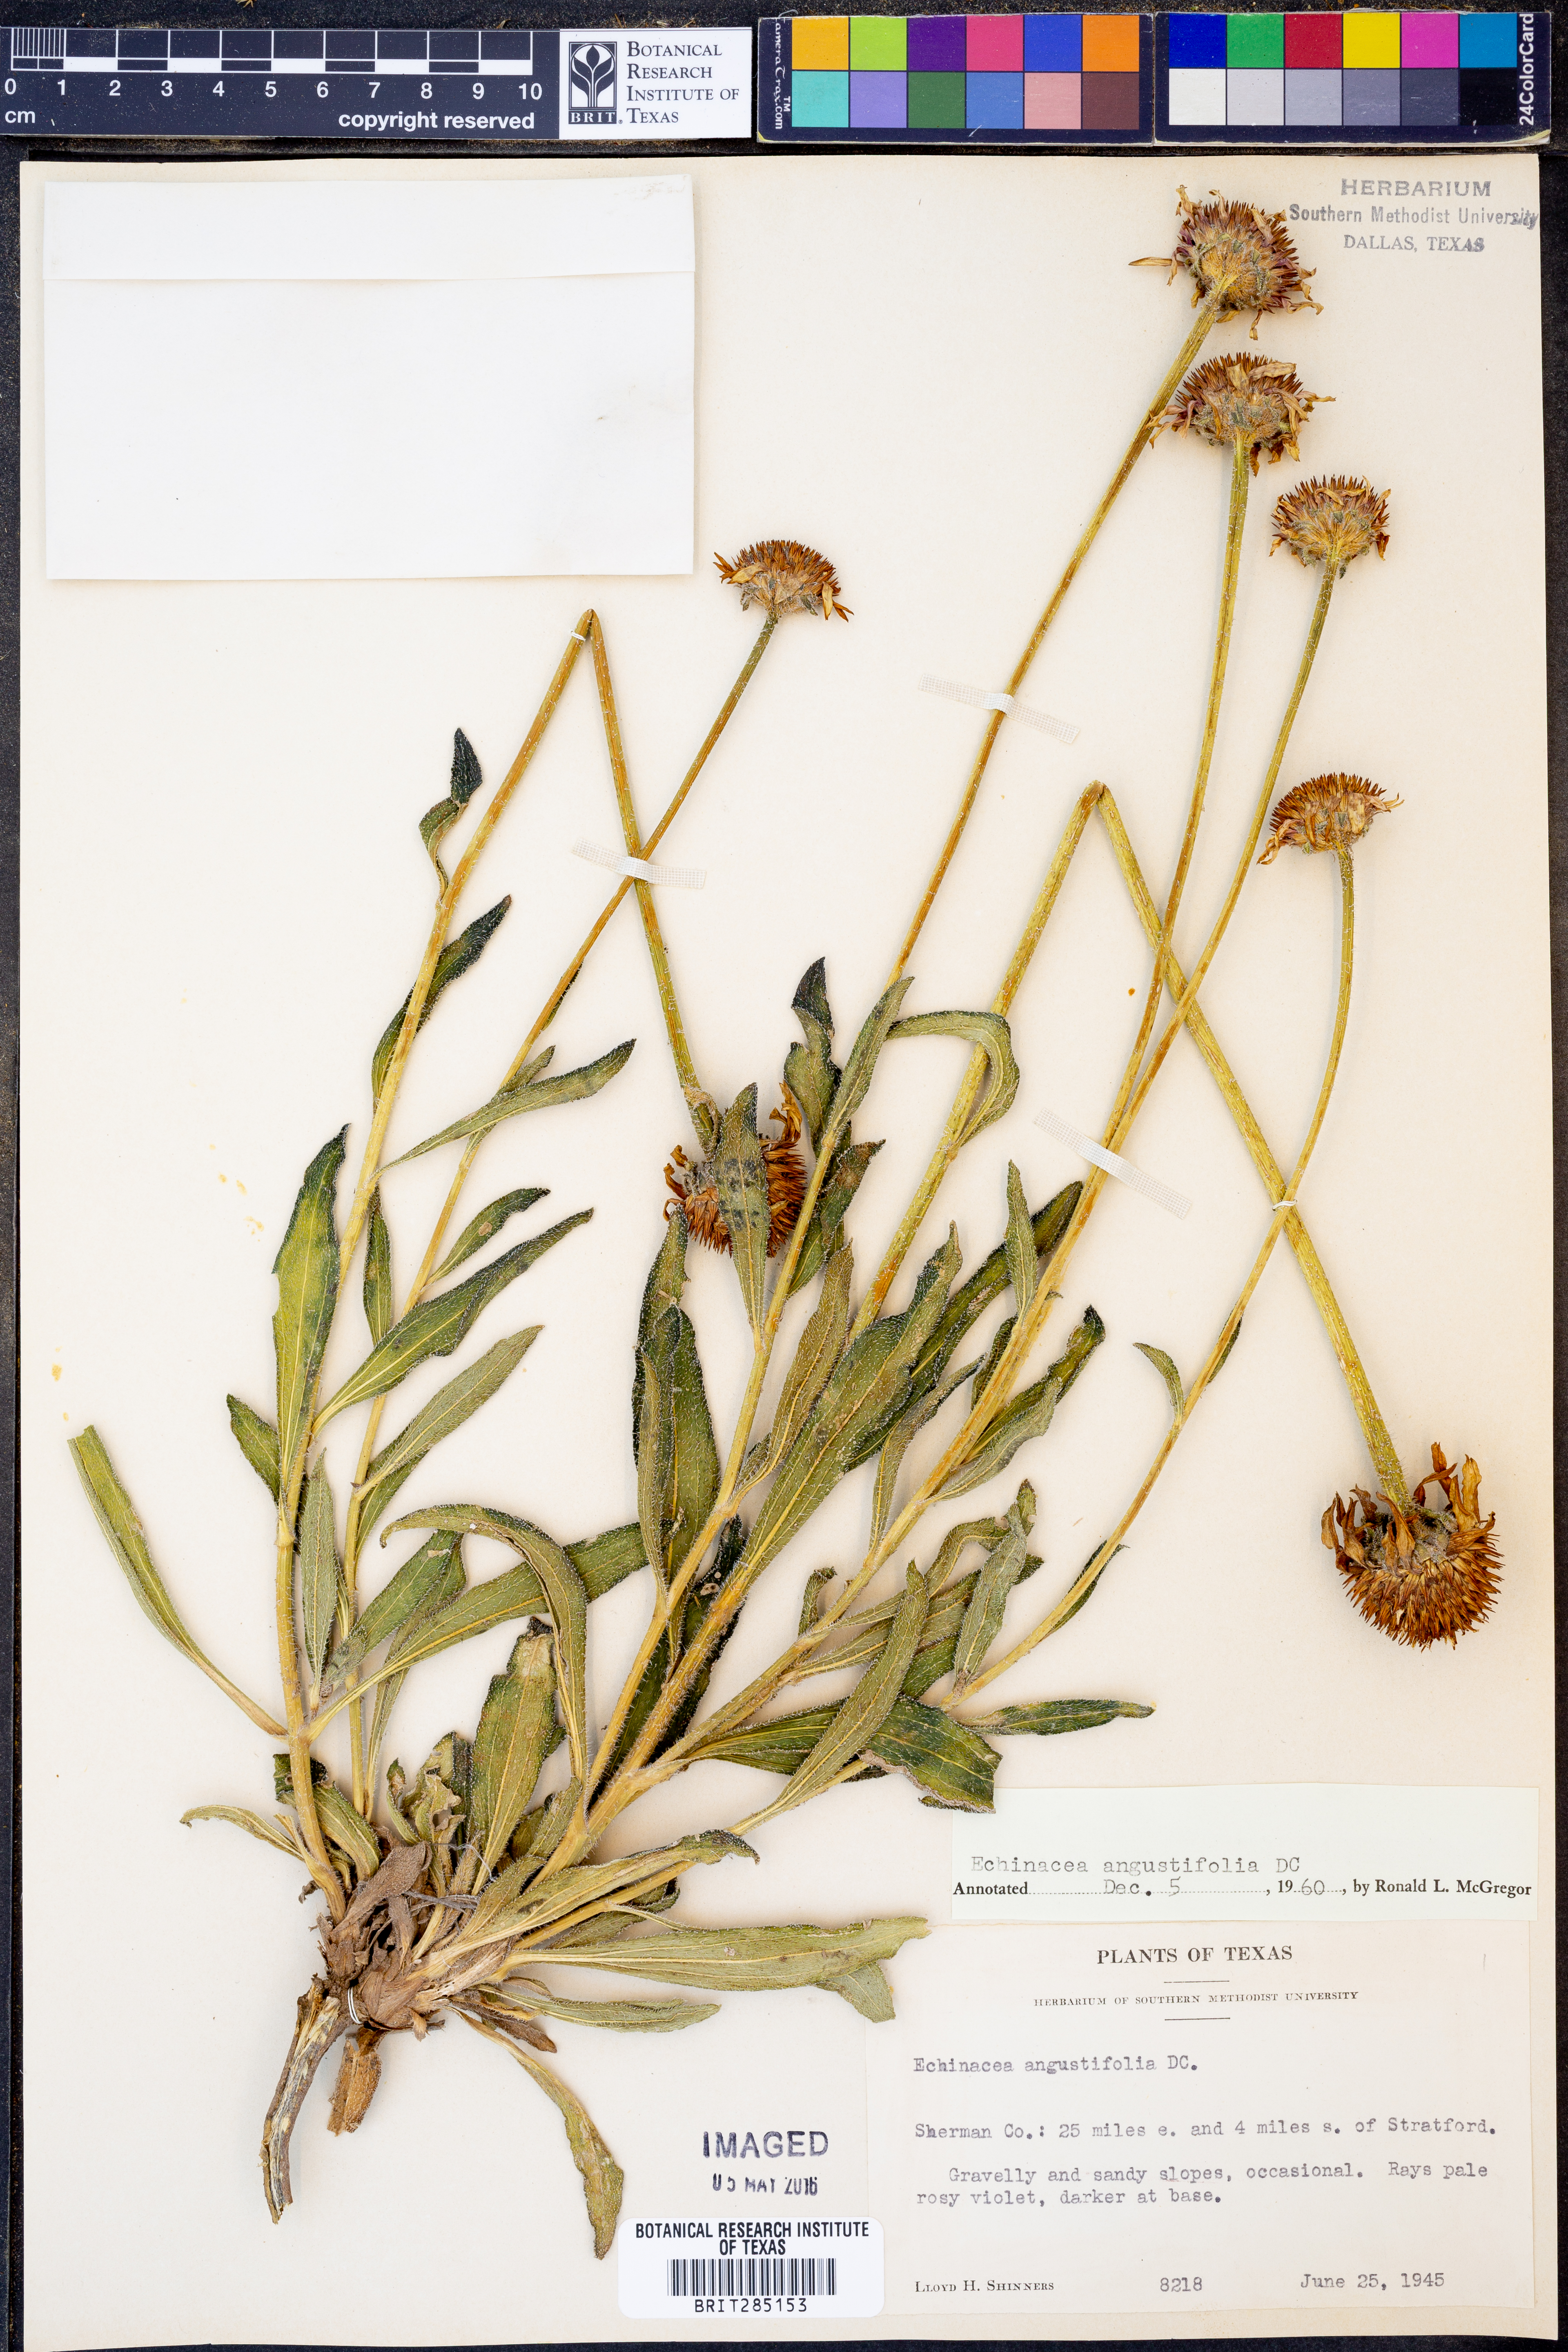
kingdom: Plantae
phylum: Tracheophyta
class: Magnoliopsida
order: Asterales
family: Asteraceae
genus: Echinacea
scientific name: Echinacea angustifolia
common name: Black-sampson echinacea
